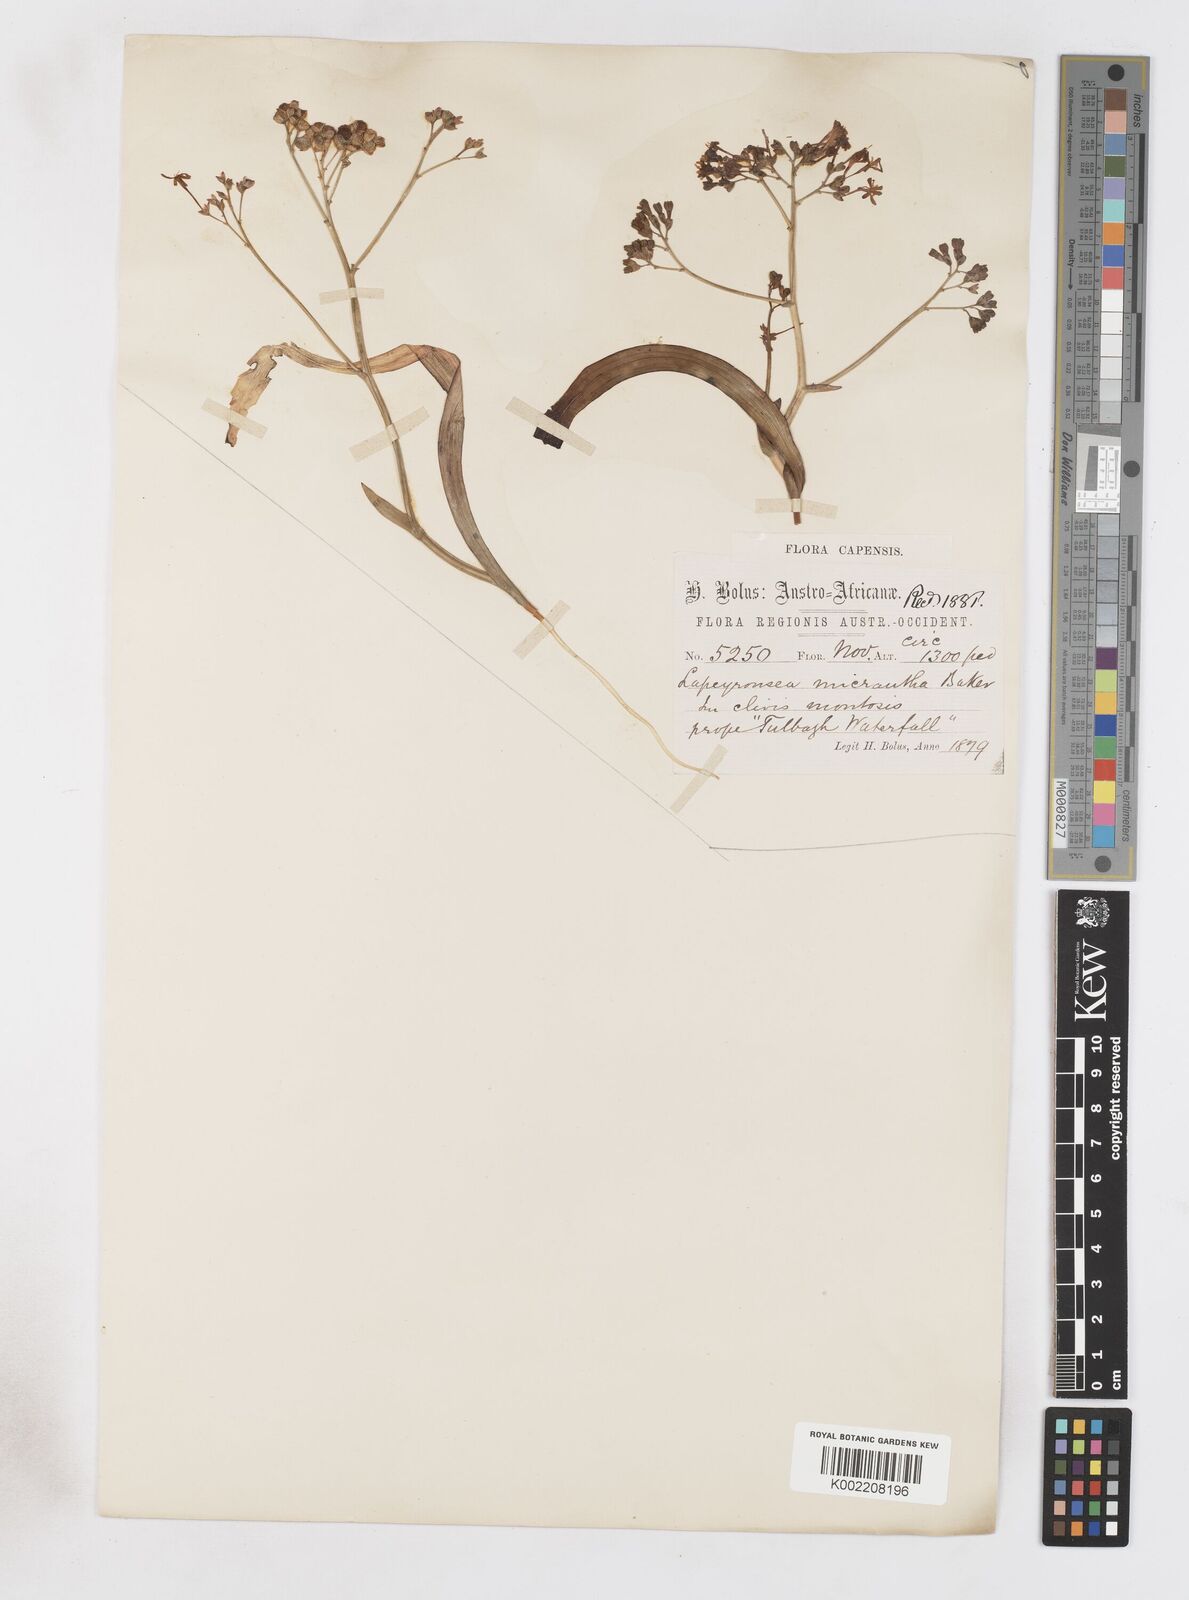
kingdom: Plantae
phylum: Tracheophyta
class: Liliopsida
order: Asparagales
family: Iridaceae
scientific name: Iridaceae
